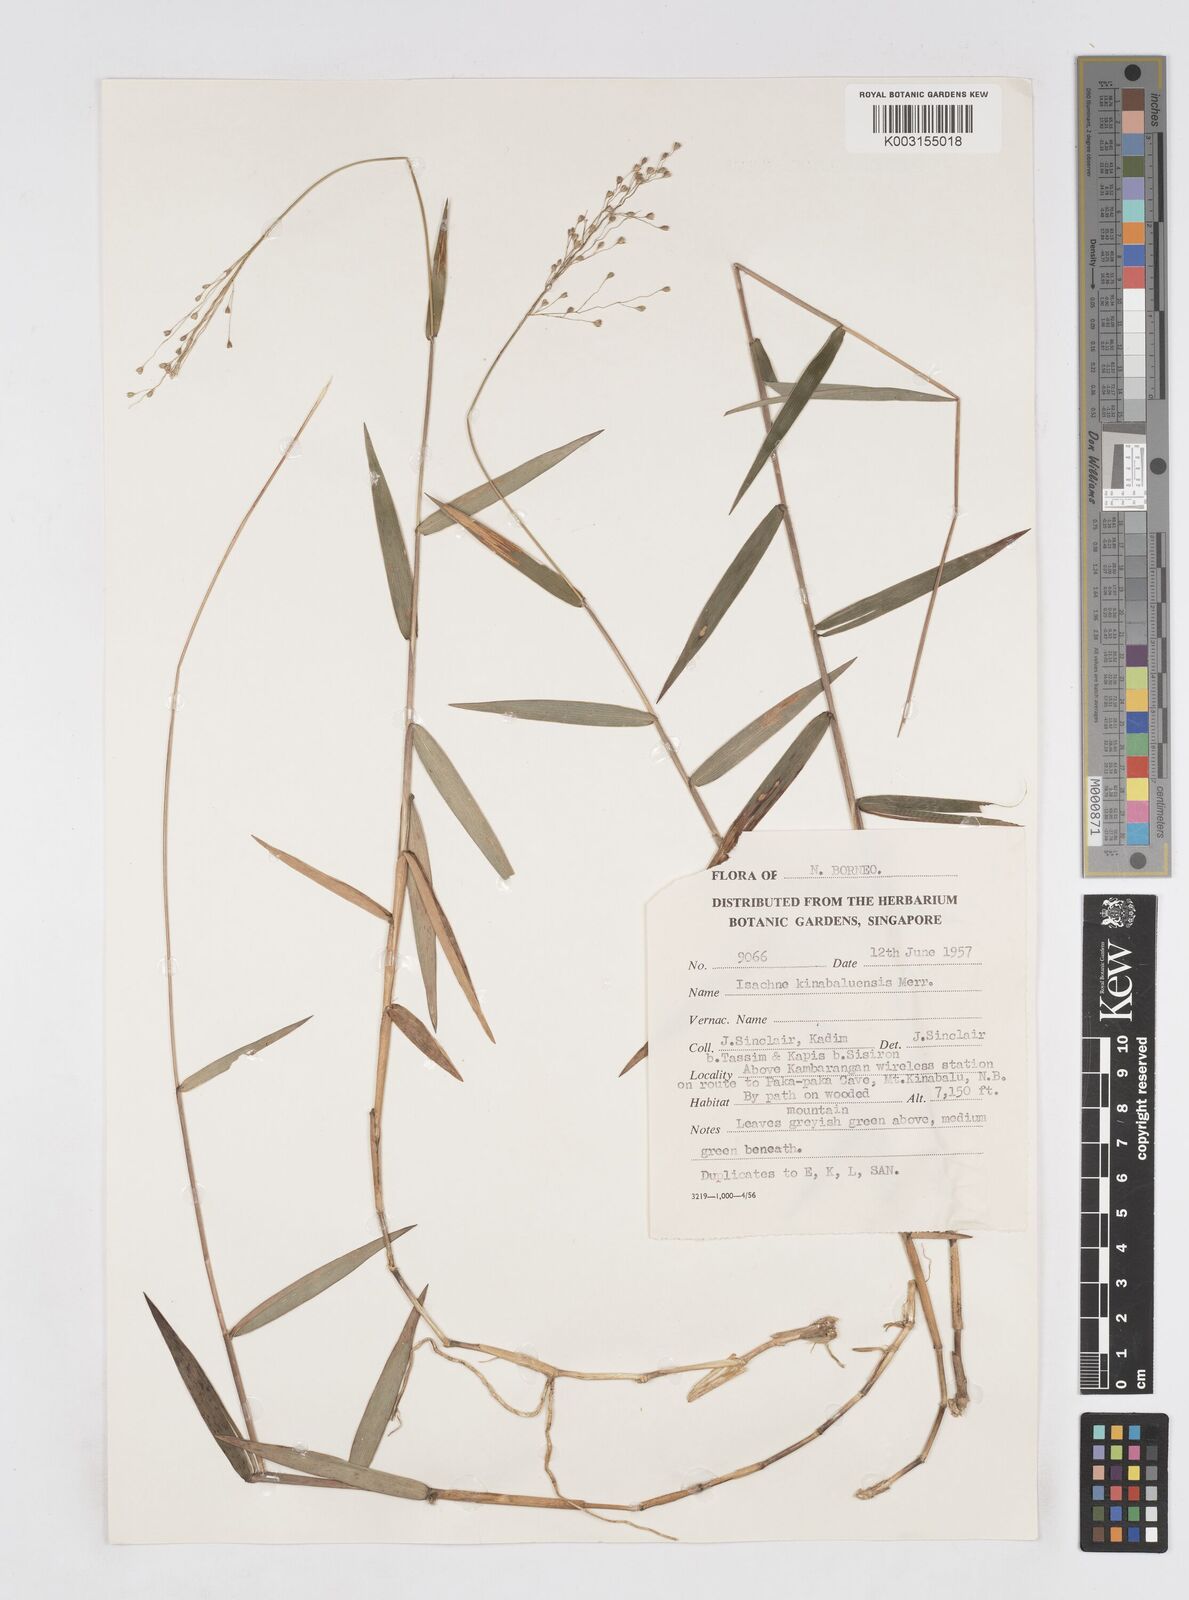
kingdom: Plantae
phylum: Tracheophyta
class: Liliopsida
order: Poales
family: Poaceae
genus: Isachne
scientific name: Isachne kinabaluensis
